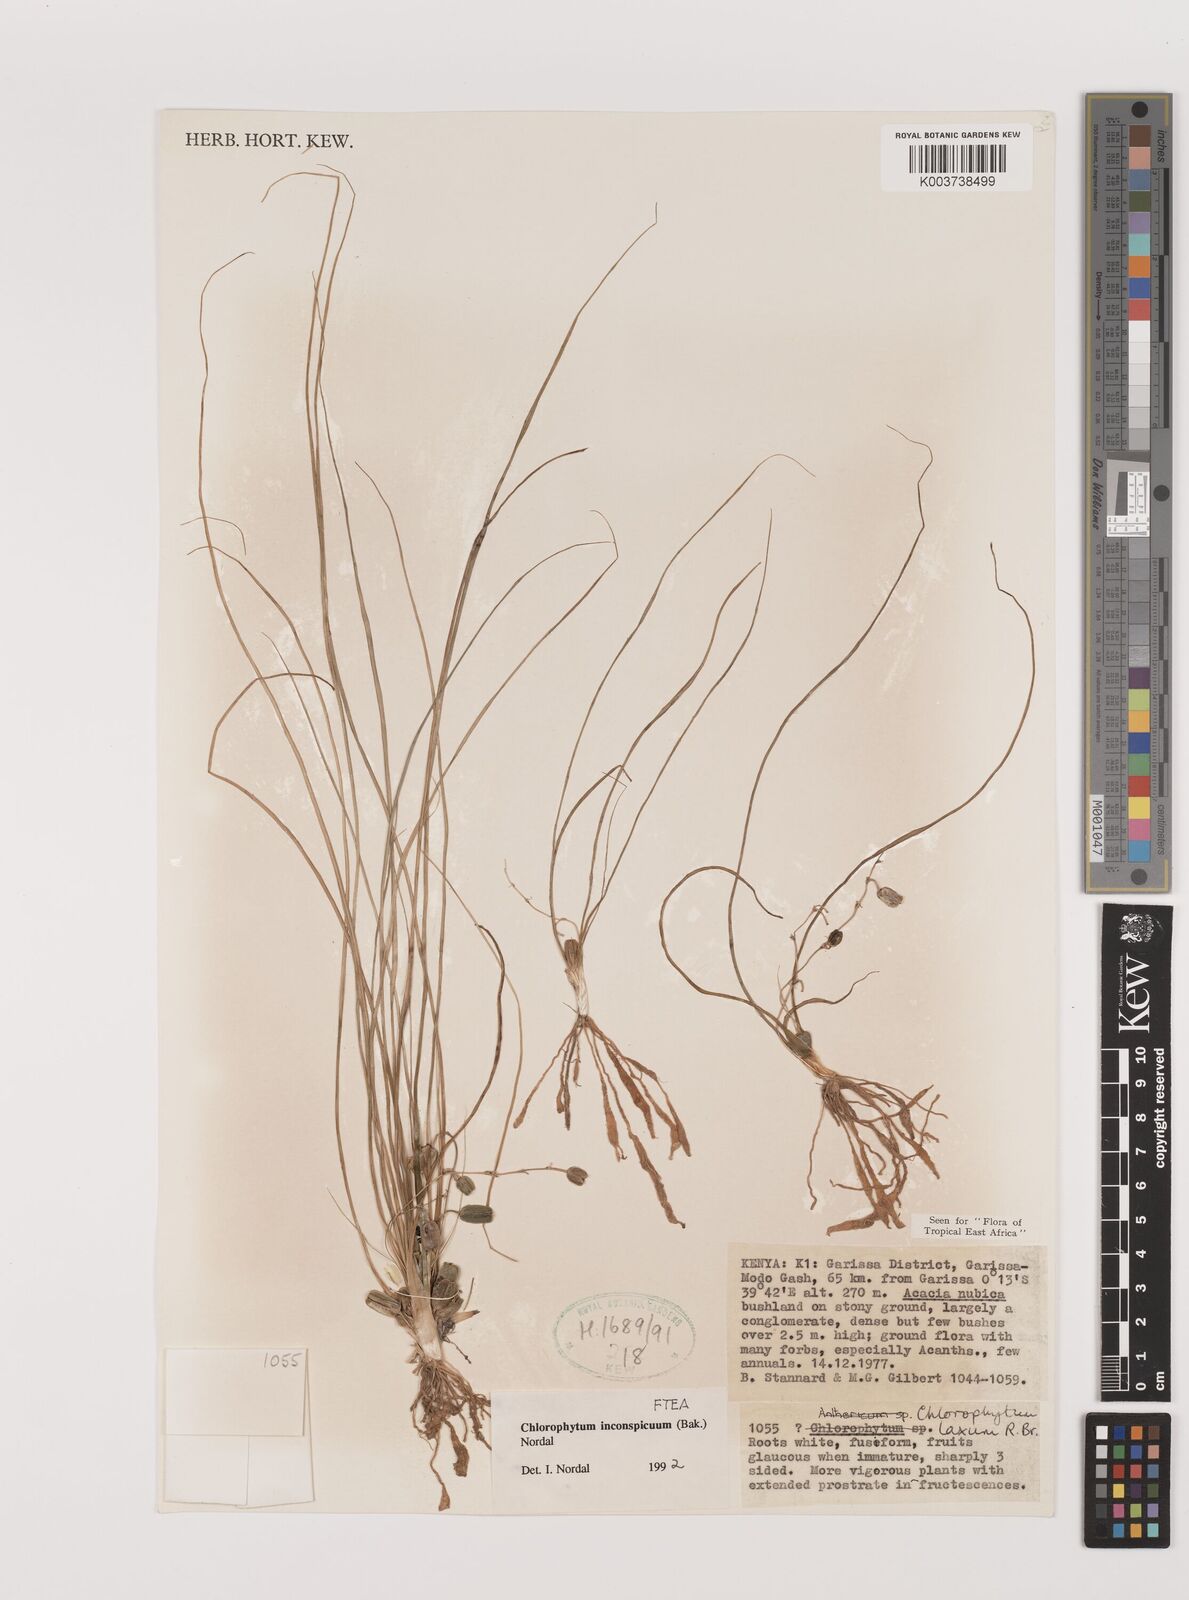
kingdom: Plantae
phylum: Tracheophyta
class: Liliopsida
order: Asparagales
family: Asparagaceae
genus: Chlorophytum
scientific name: Chlorophytum inconspicuum
